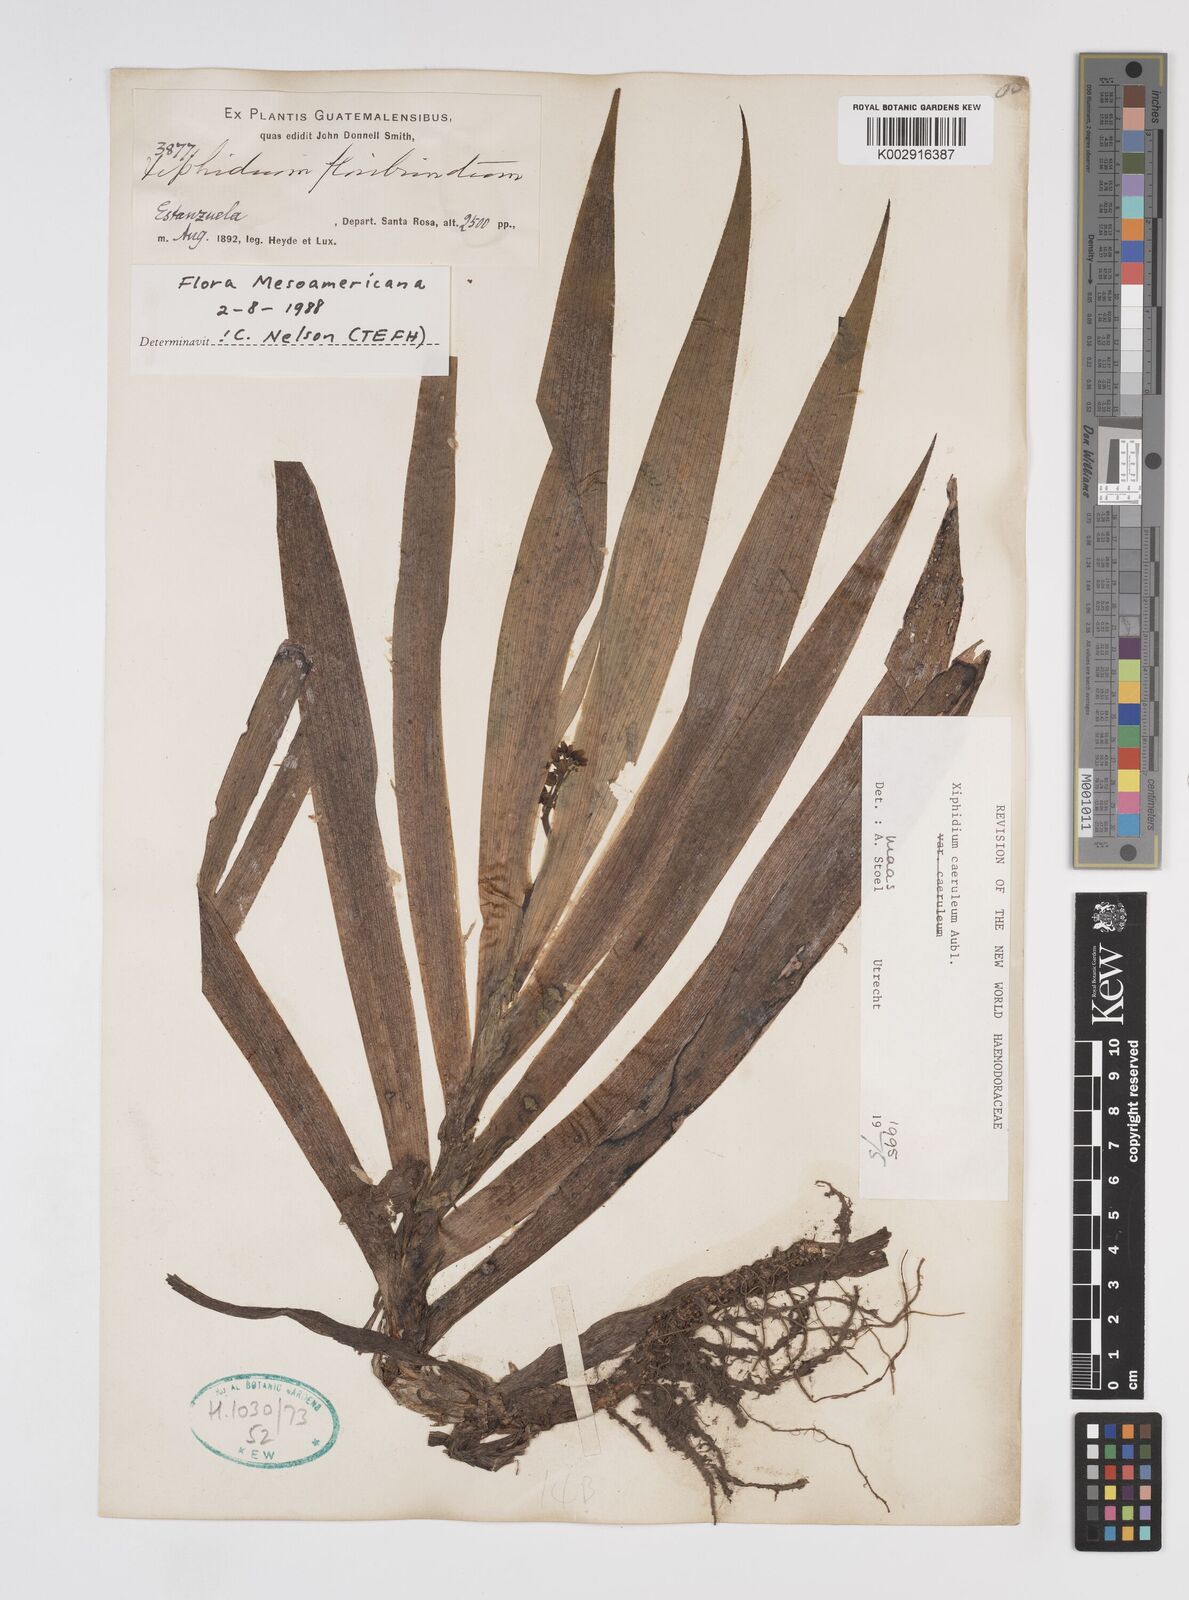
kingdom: Plantae
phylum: Tracheophyta
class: Liliopsida
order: Commelinales
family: Haemodoraceae
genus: Xiphidium
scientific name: Xiphidium caeruleum
